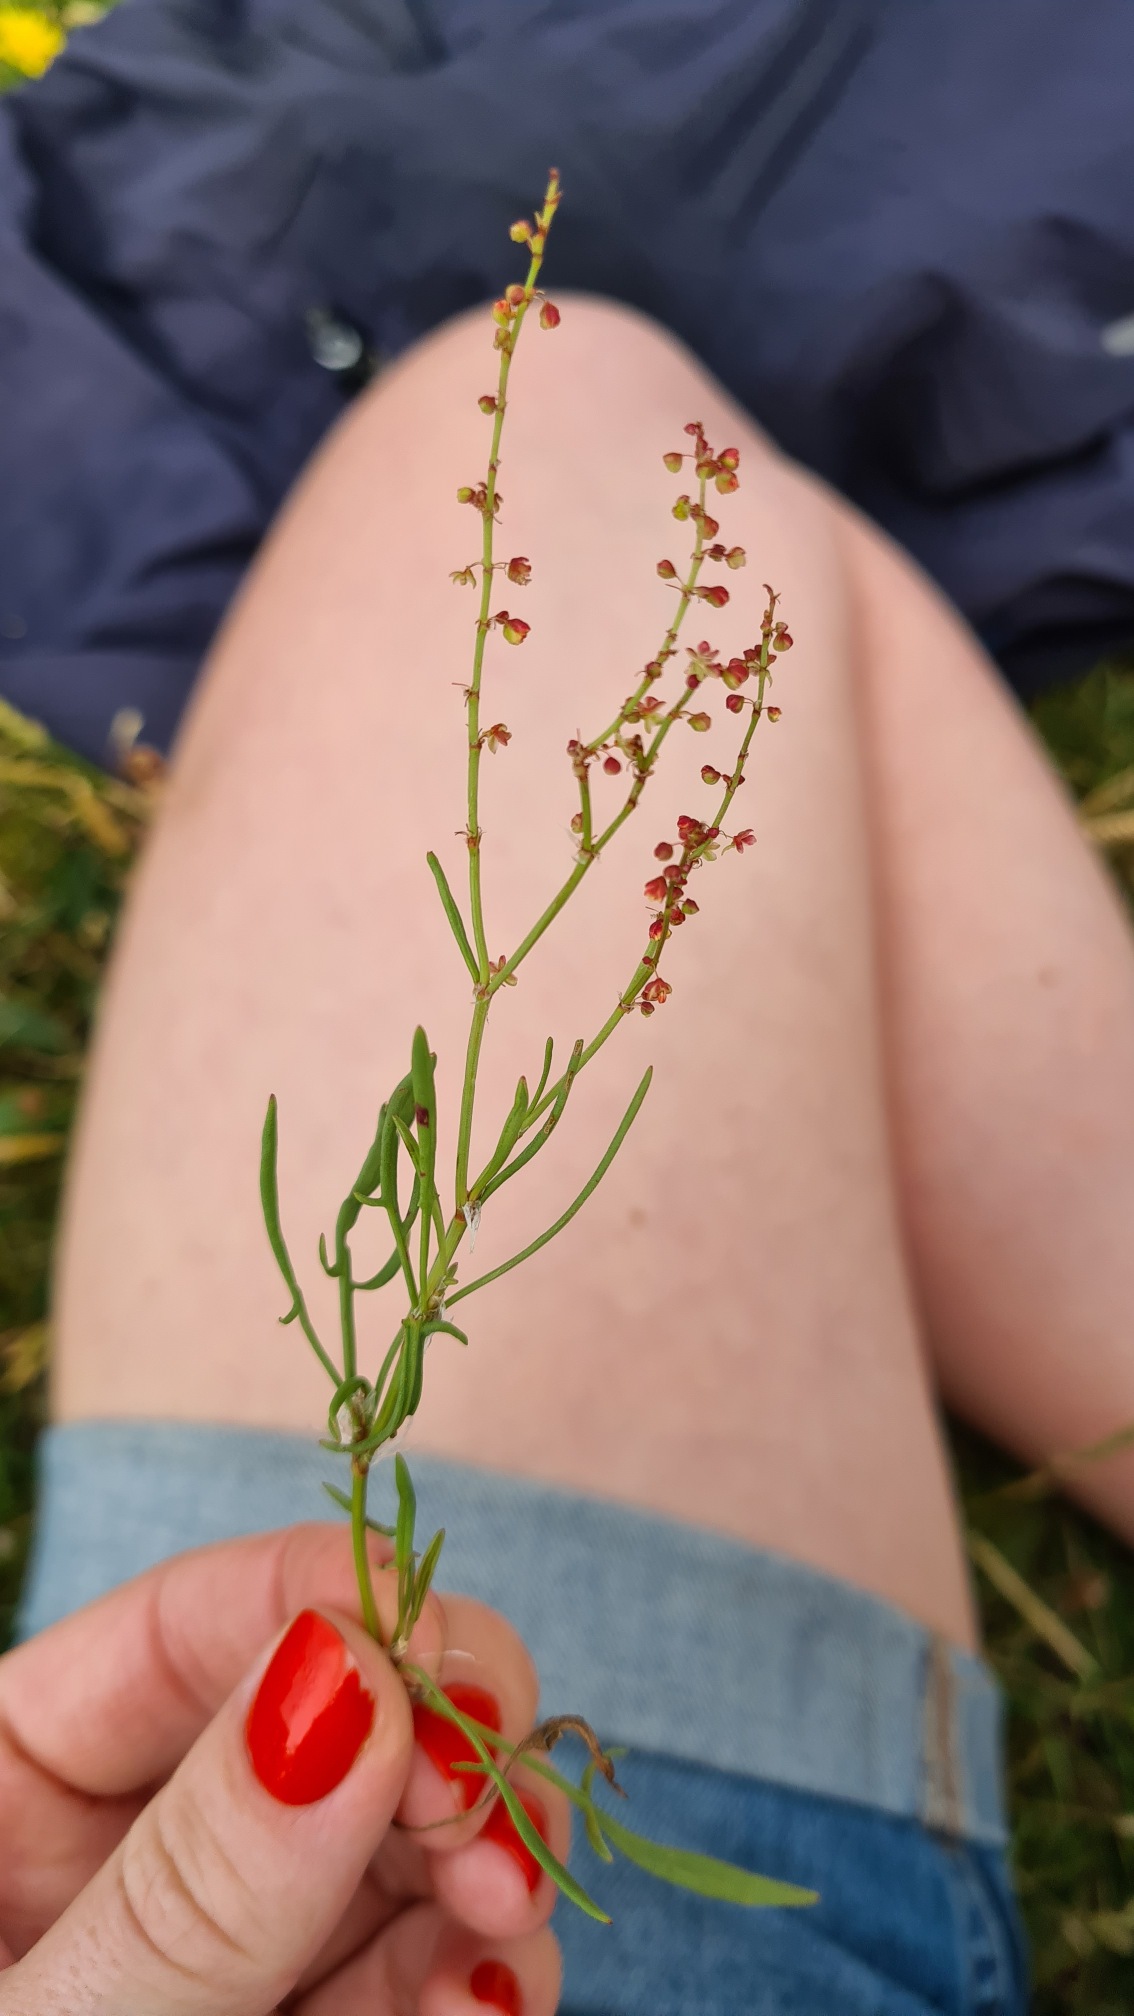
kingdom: Plantae
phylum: Tracheophyta
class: Magnoliopsida
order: Caryophyllales
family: Polygonaceae
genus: Rumex
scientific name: Rumex acetosella
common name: Rødknæ
